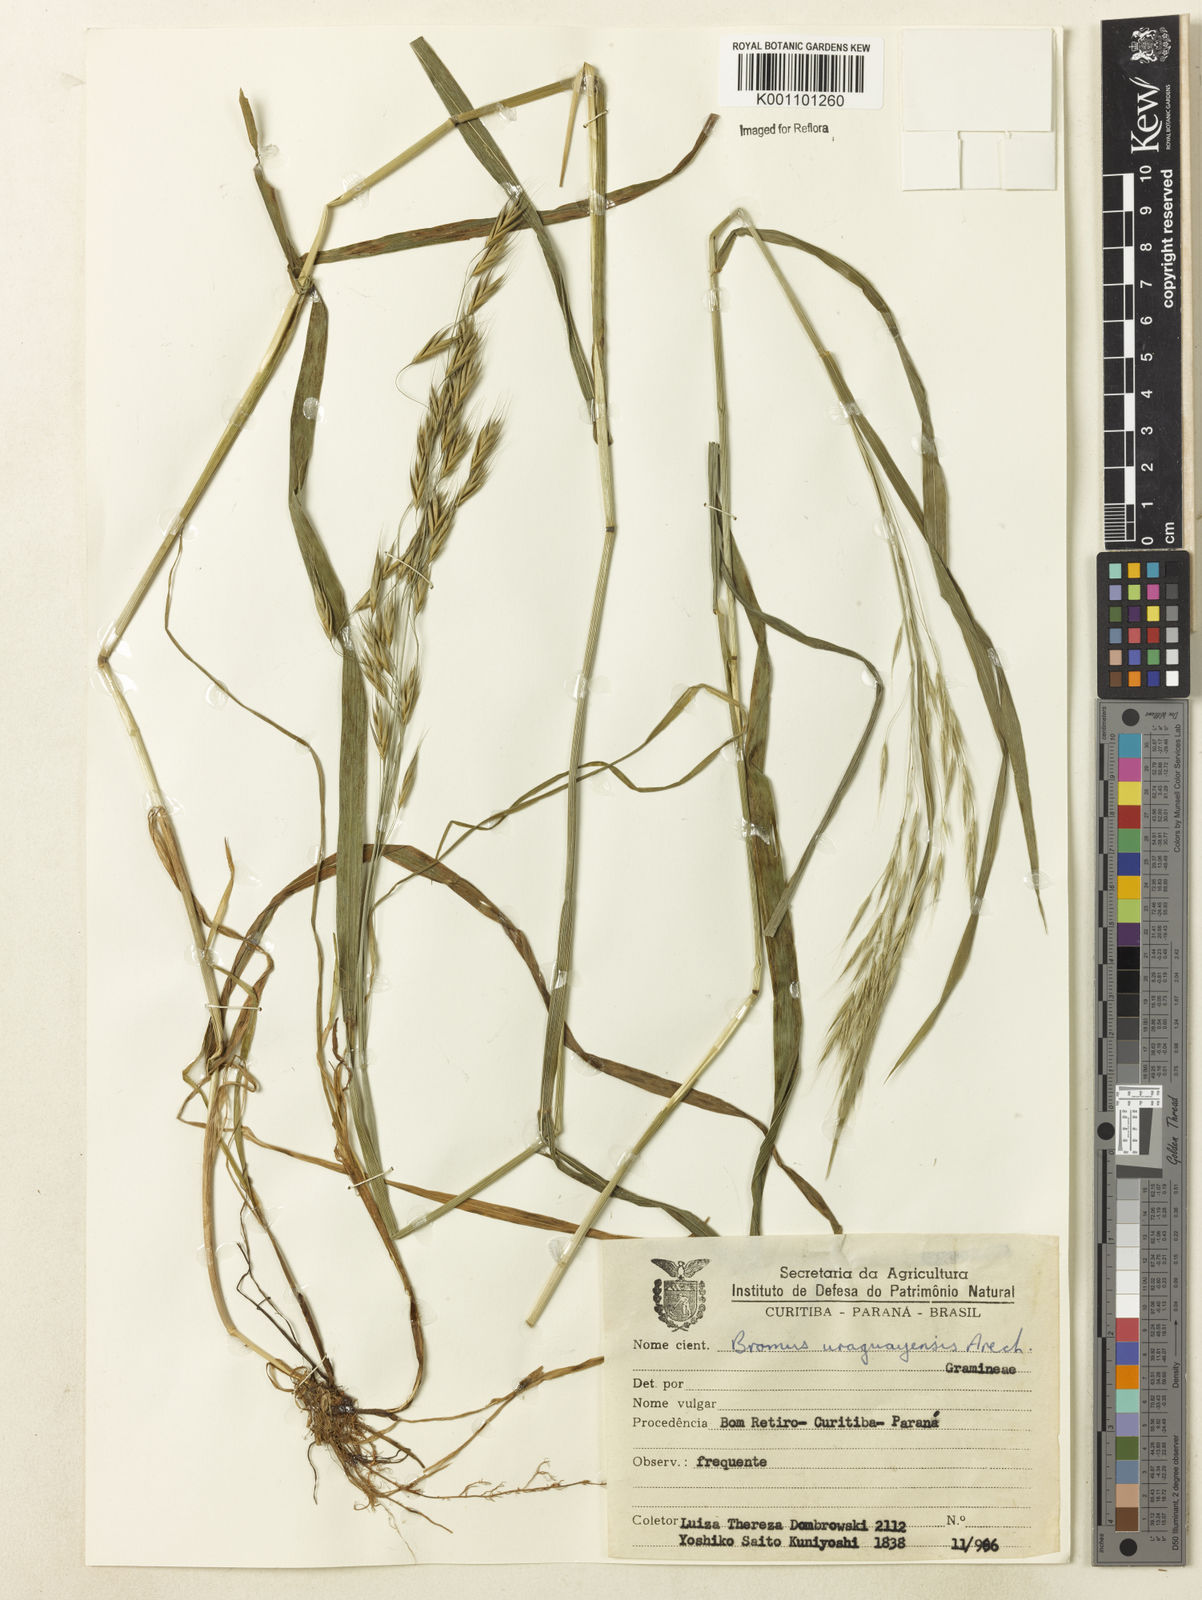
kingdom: Plantae
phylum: Tracheophyta
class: Liliopsida
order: Poales
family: Poaceae
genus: Bromus
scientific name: Bromus
